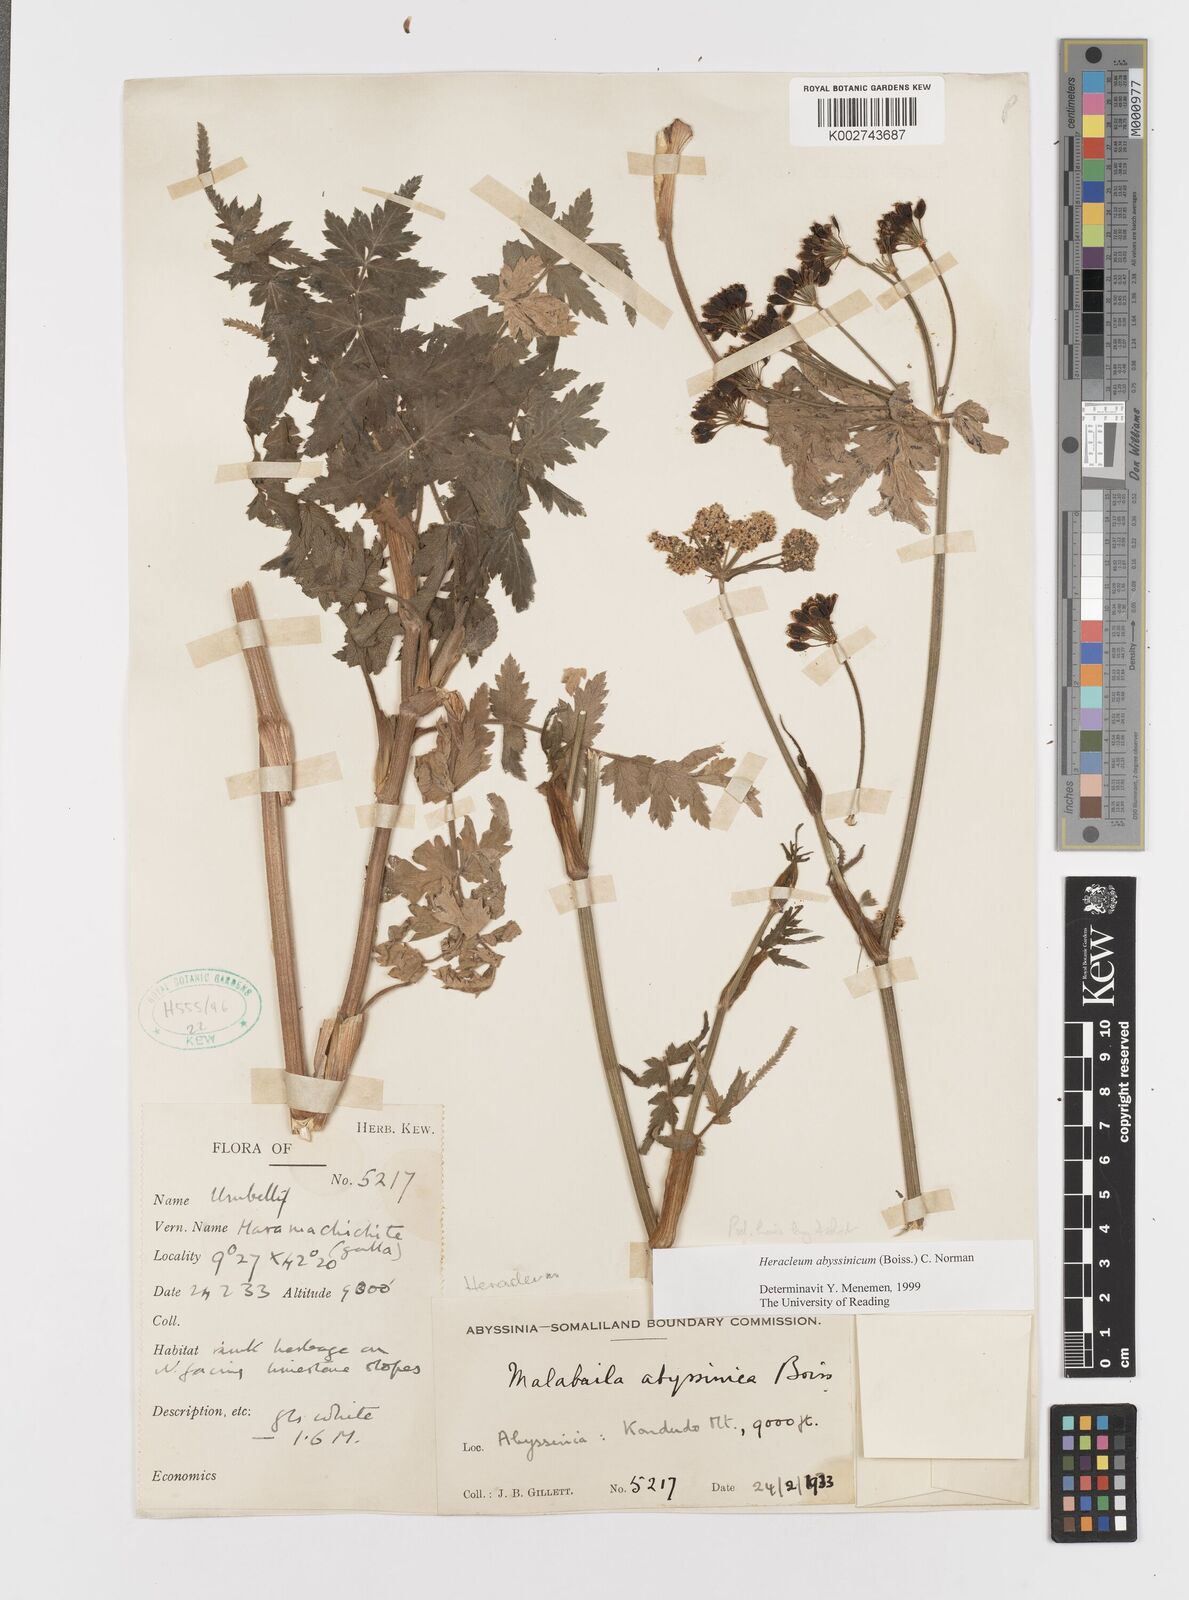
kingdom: Plantae
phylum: Tracheophyta
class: Magnoliopsida
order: Apiales
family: Apiaceae
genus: Heracleum
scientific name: Heracleum abyssinicum
